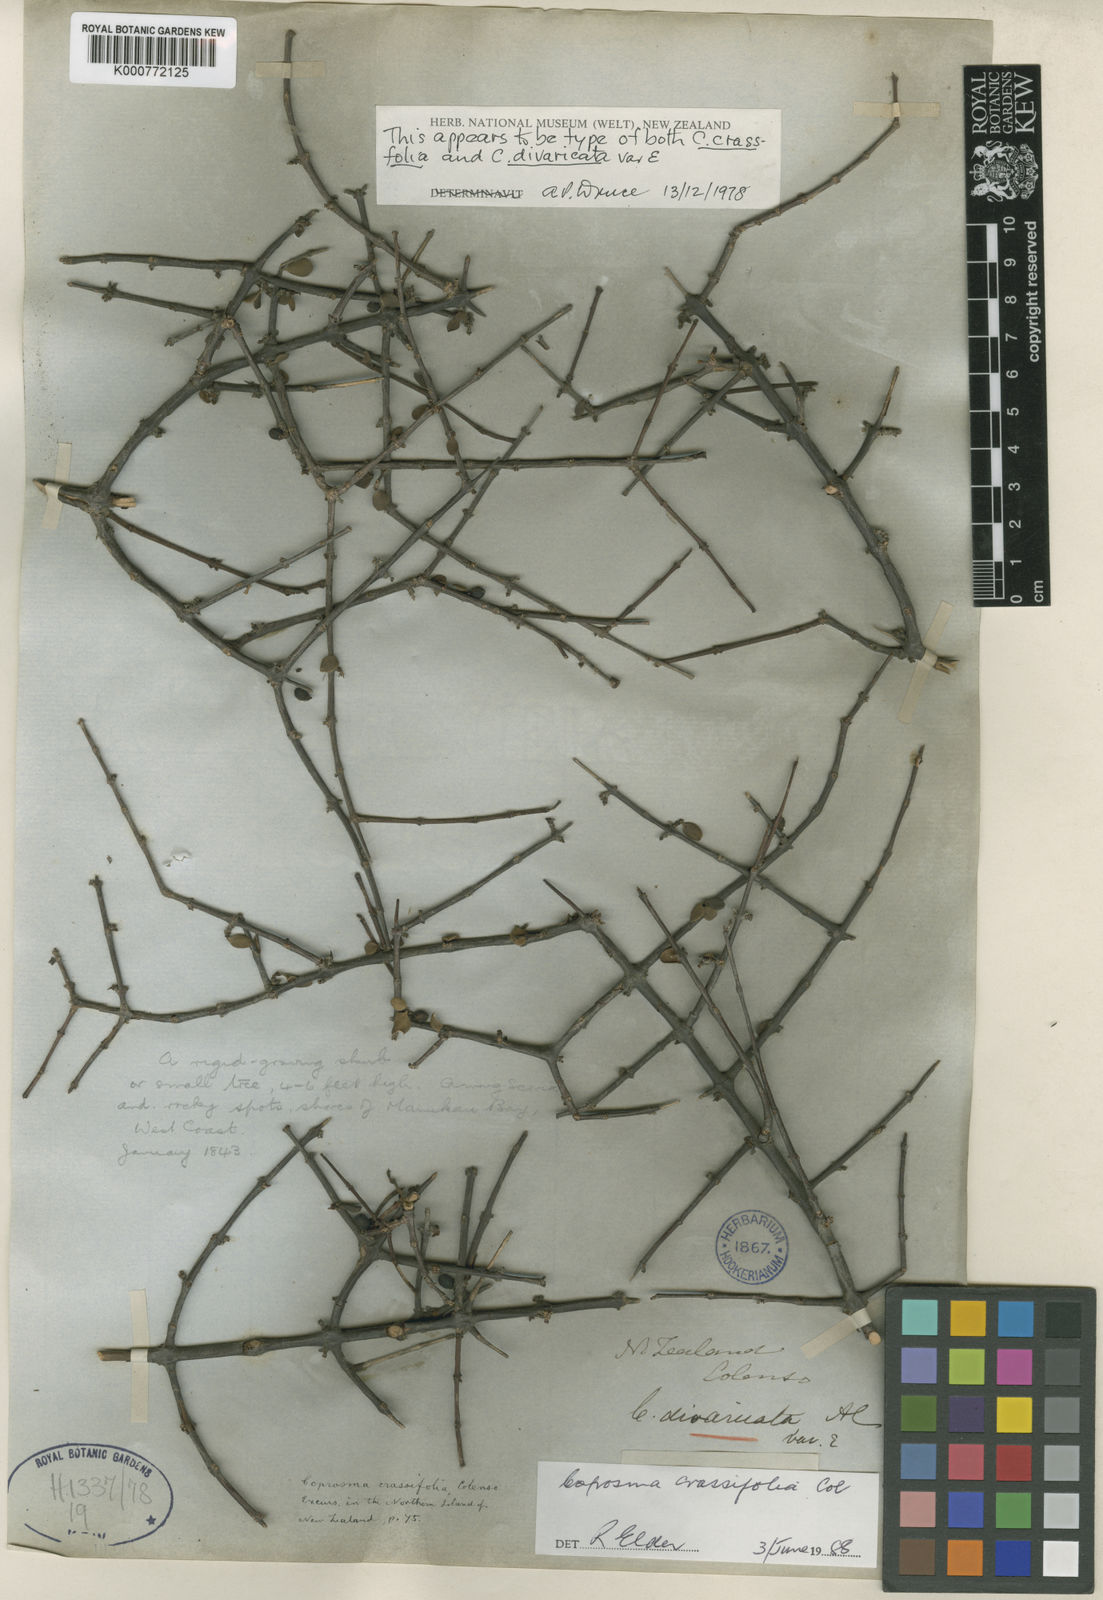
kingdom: Plantae
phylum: Tracheophyta
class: Magnoliopsida
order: Gentianales
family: Rubiaceae
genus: Coprosma
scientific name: Coprosma rhamnoides
